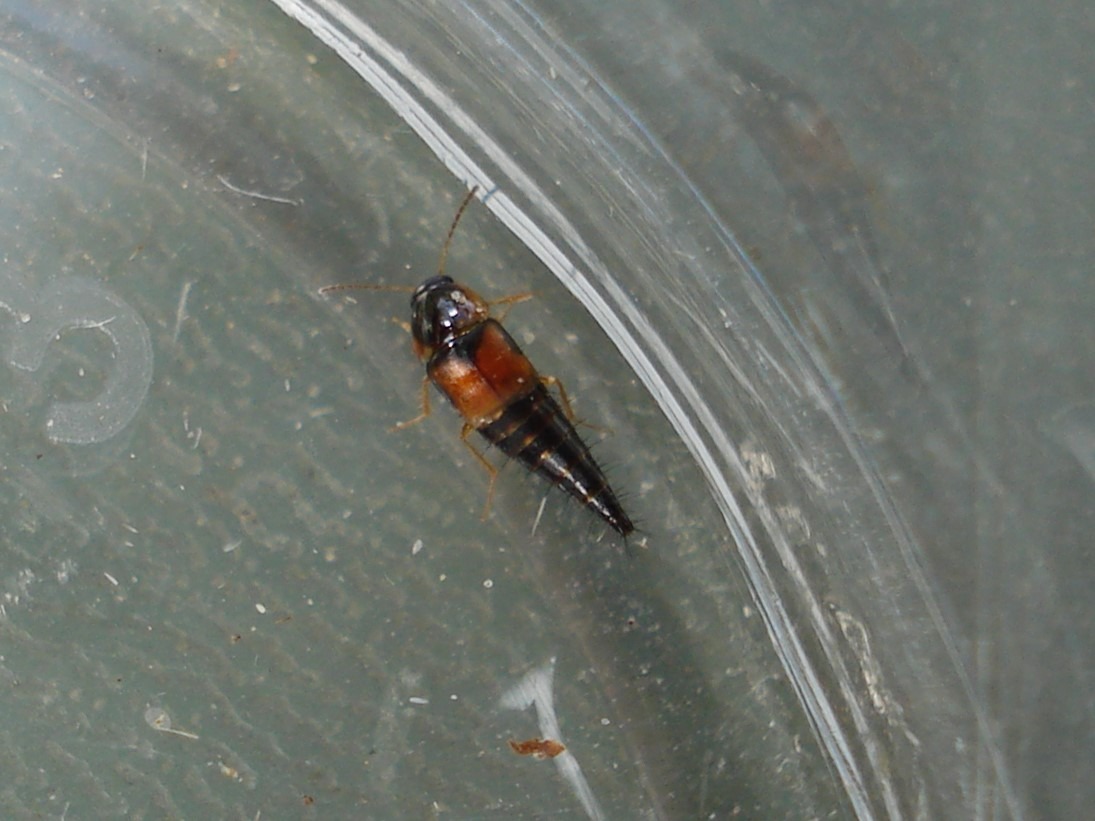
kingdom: Animalia
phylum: Arthropoda
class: Insecta
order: Coleoptera
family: Staphylinidae
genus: Tachyporus
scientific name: Tachyporus hypnorum
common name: Sortplettet agerrovbille
